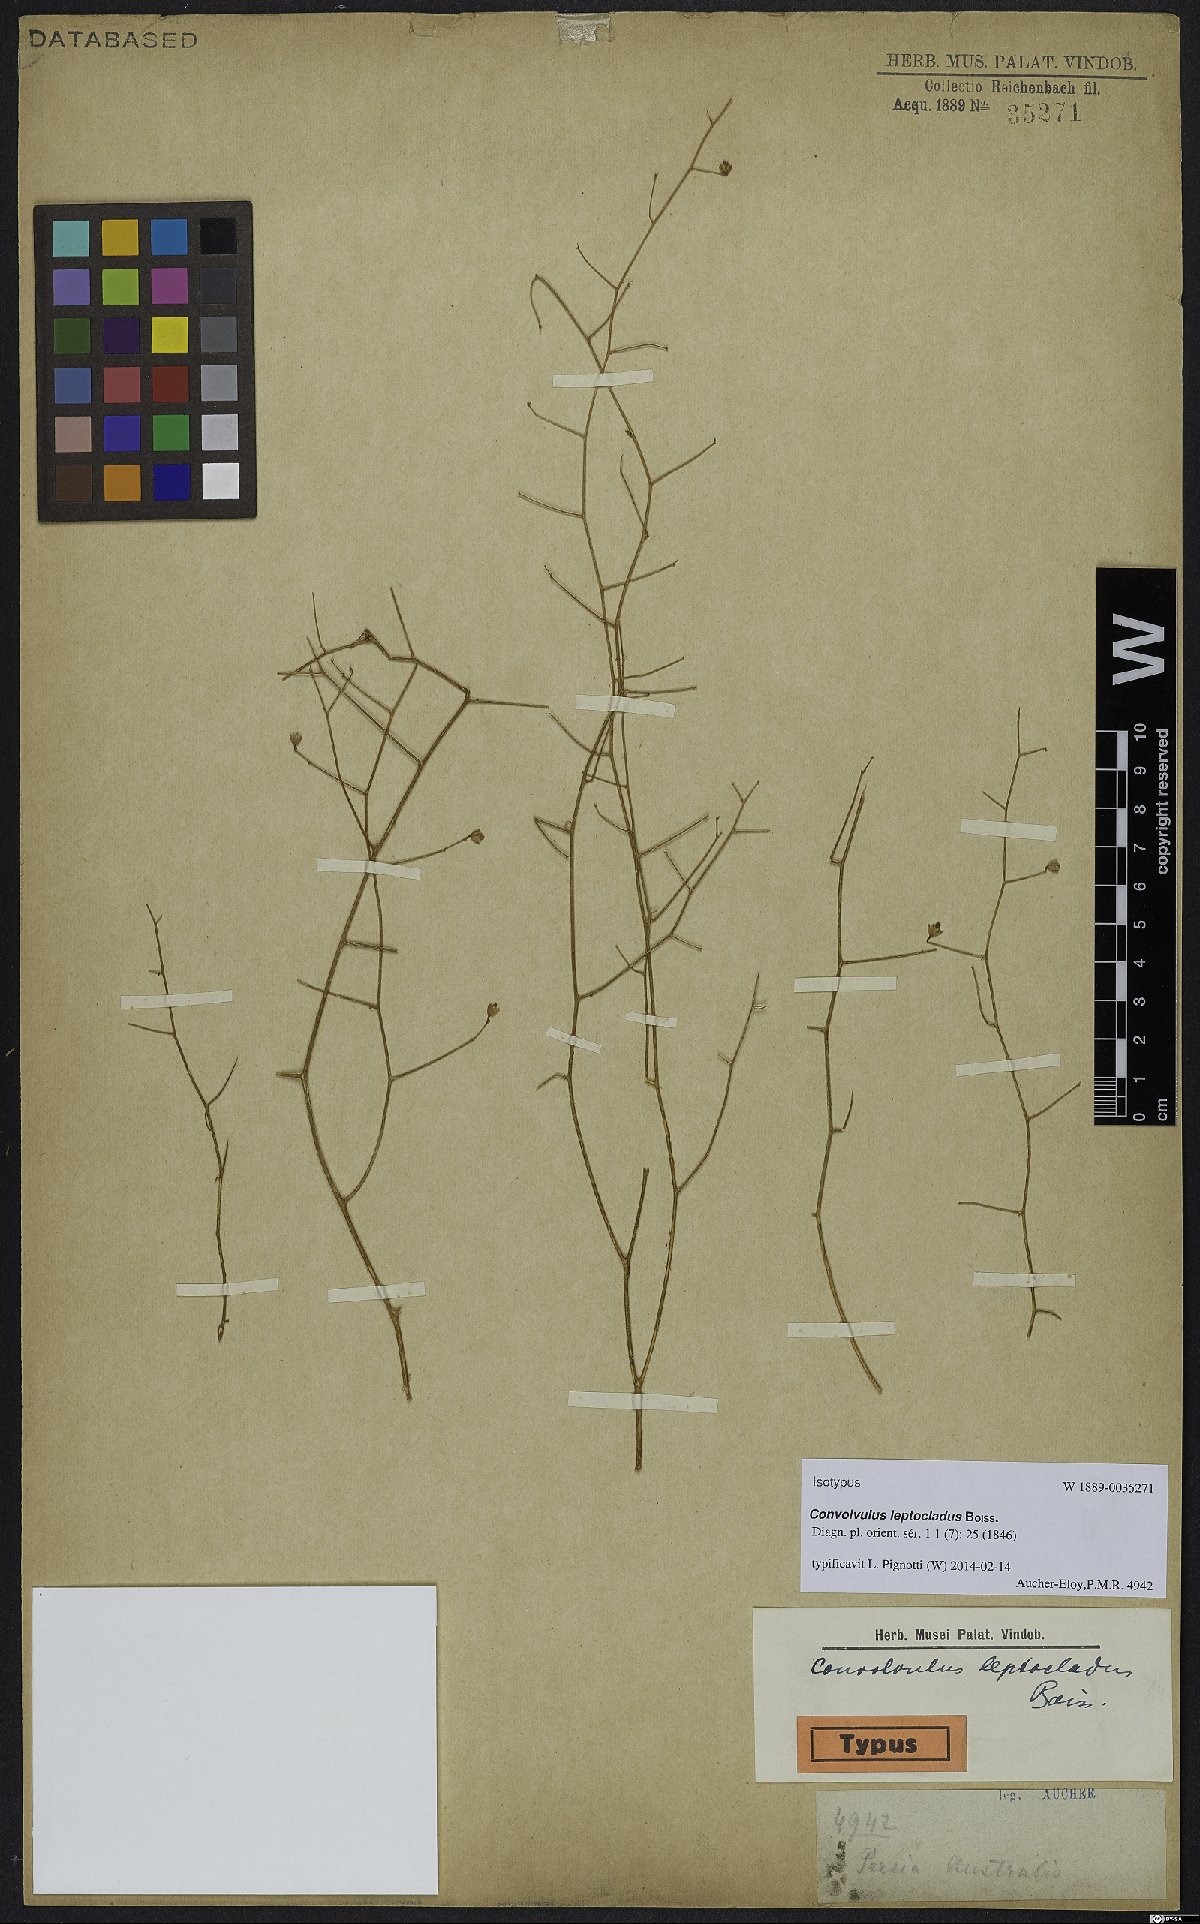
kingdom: Plantae
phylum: Tracheophyta
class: Magnoliopsida
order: Solanales
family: Convolvulaceae
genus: Convolvulus
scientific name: Convolvulus leptocladus
